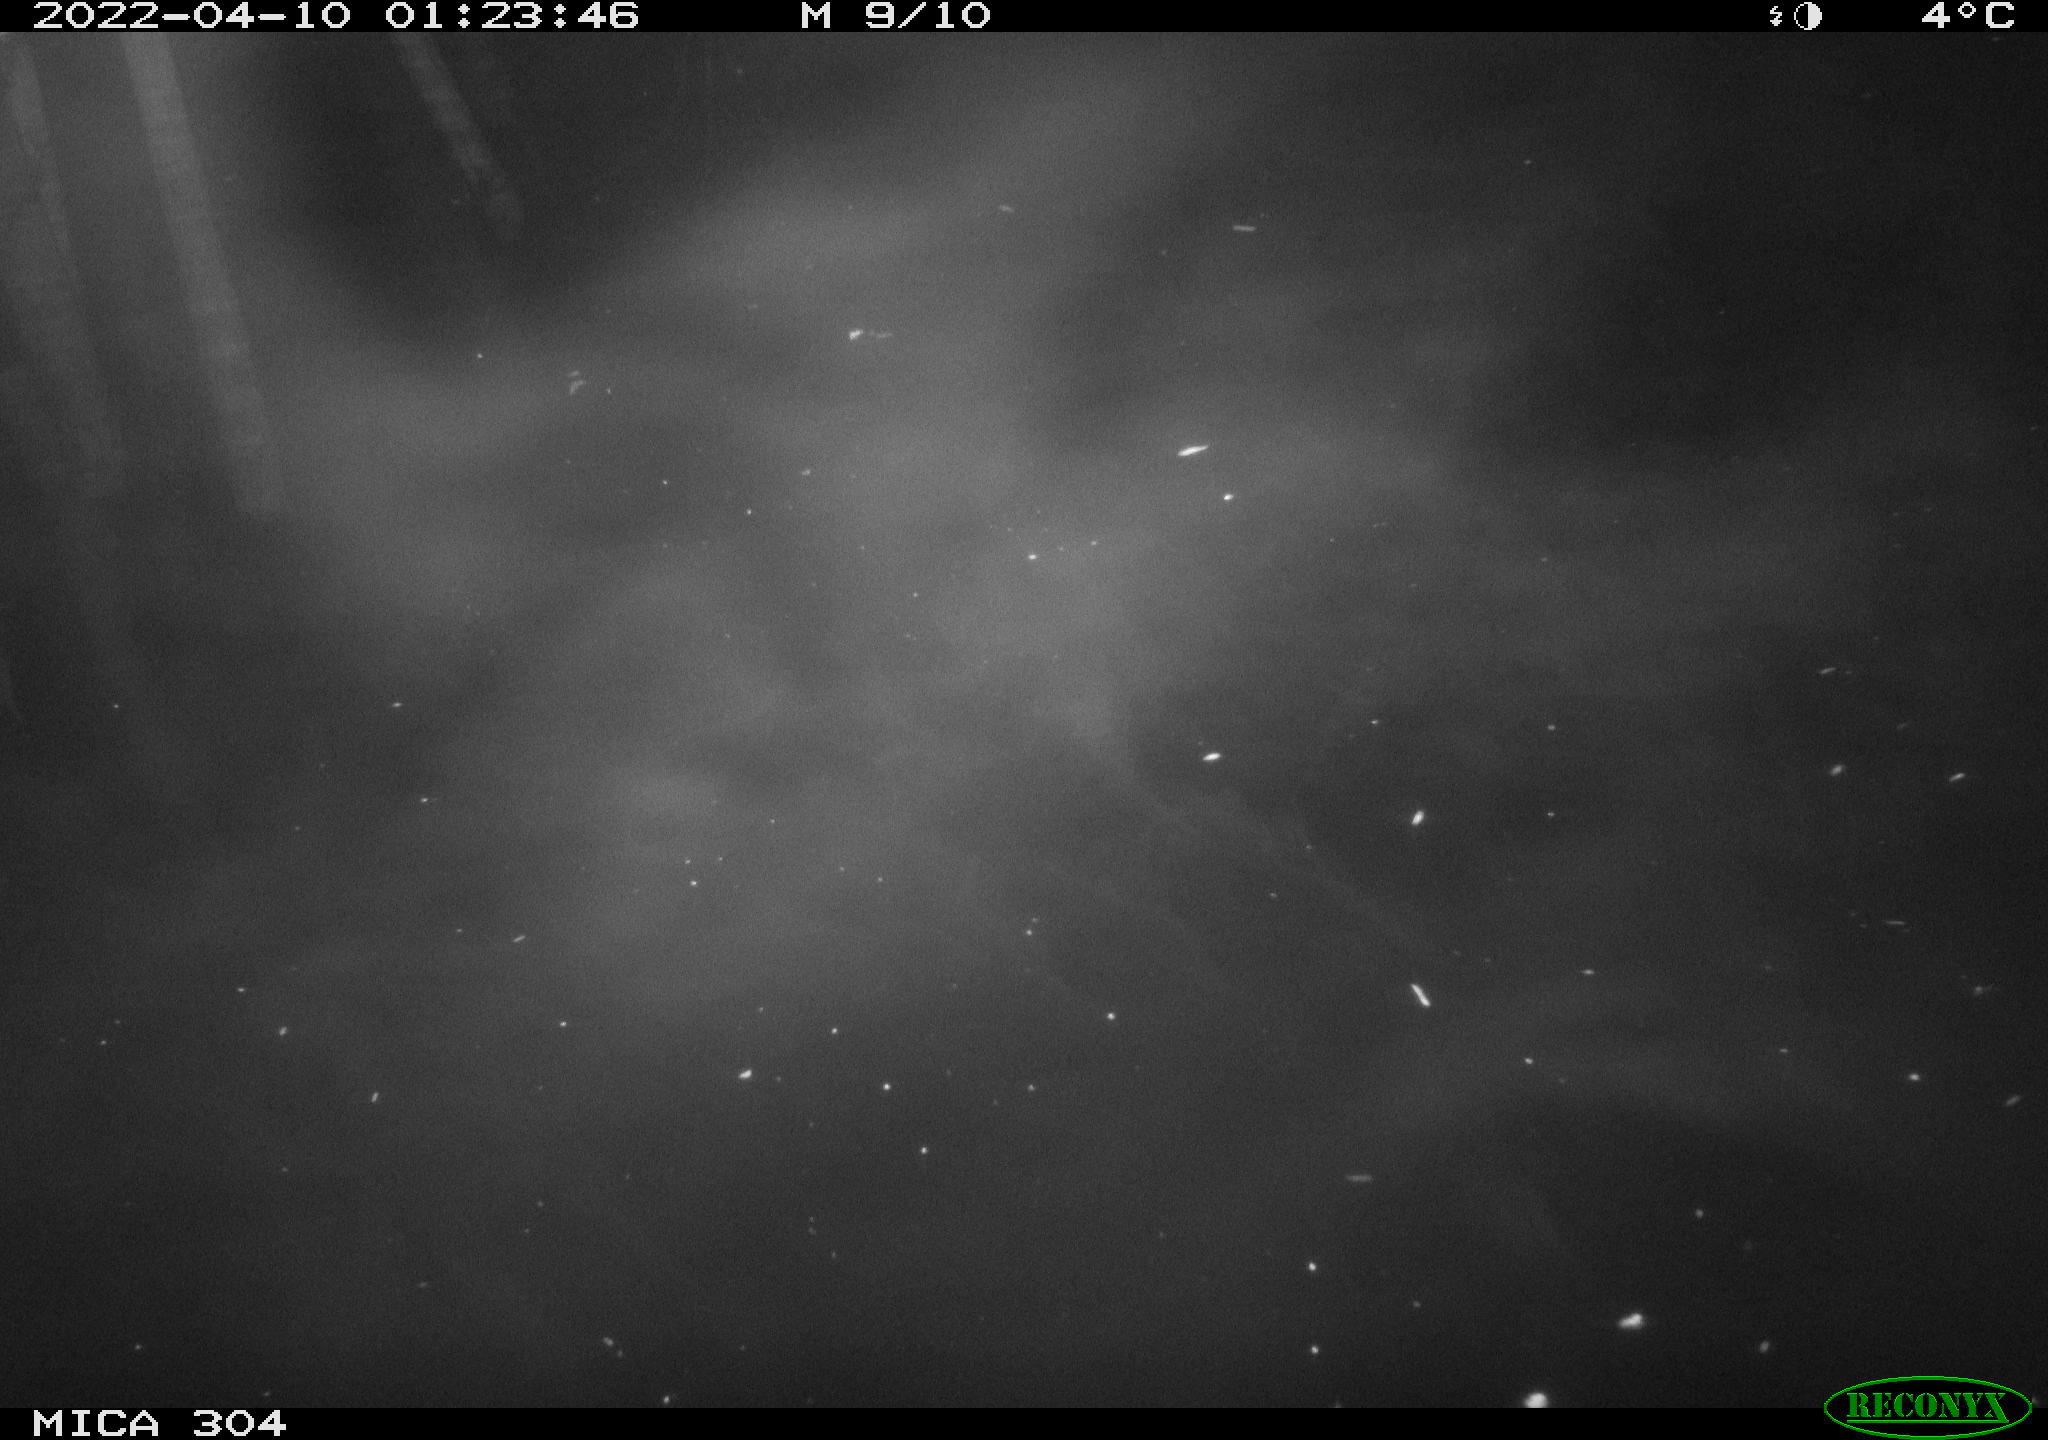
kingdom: Animalia
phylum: Chordata
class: Mammalia
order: Rodentia
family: Cricetidae
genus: Ondatra
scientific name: Ondatra zibethicus
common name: Muskrat
